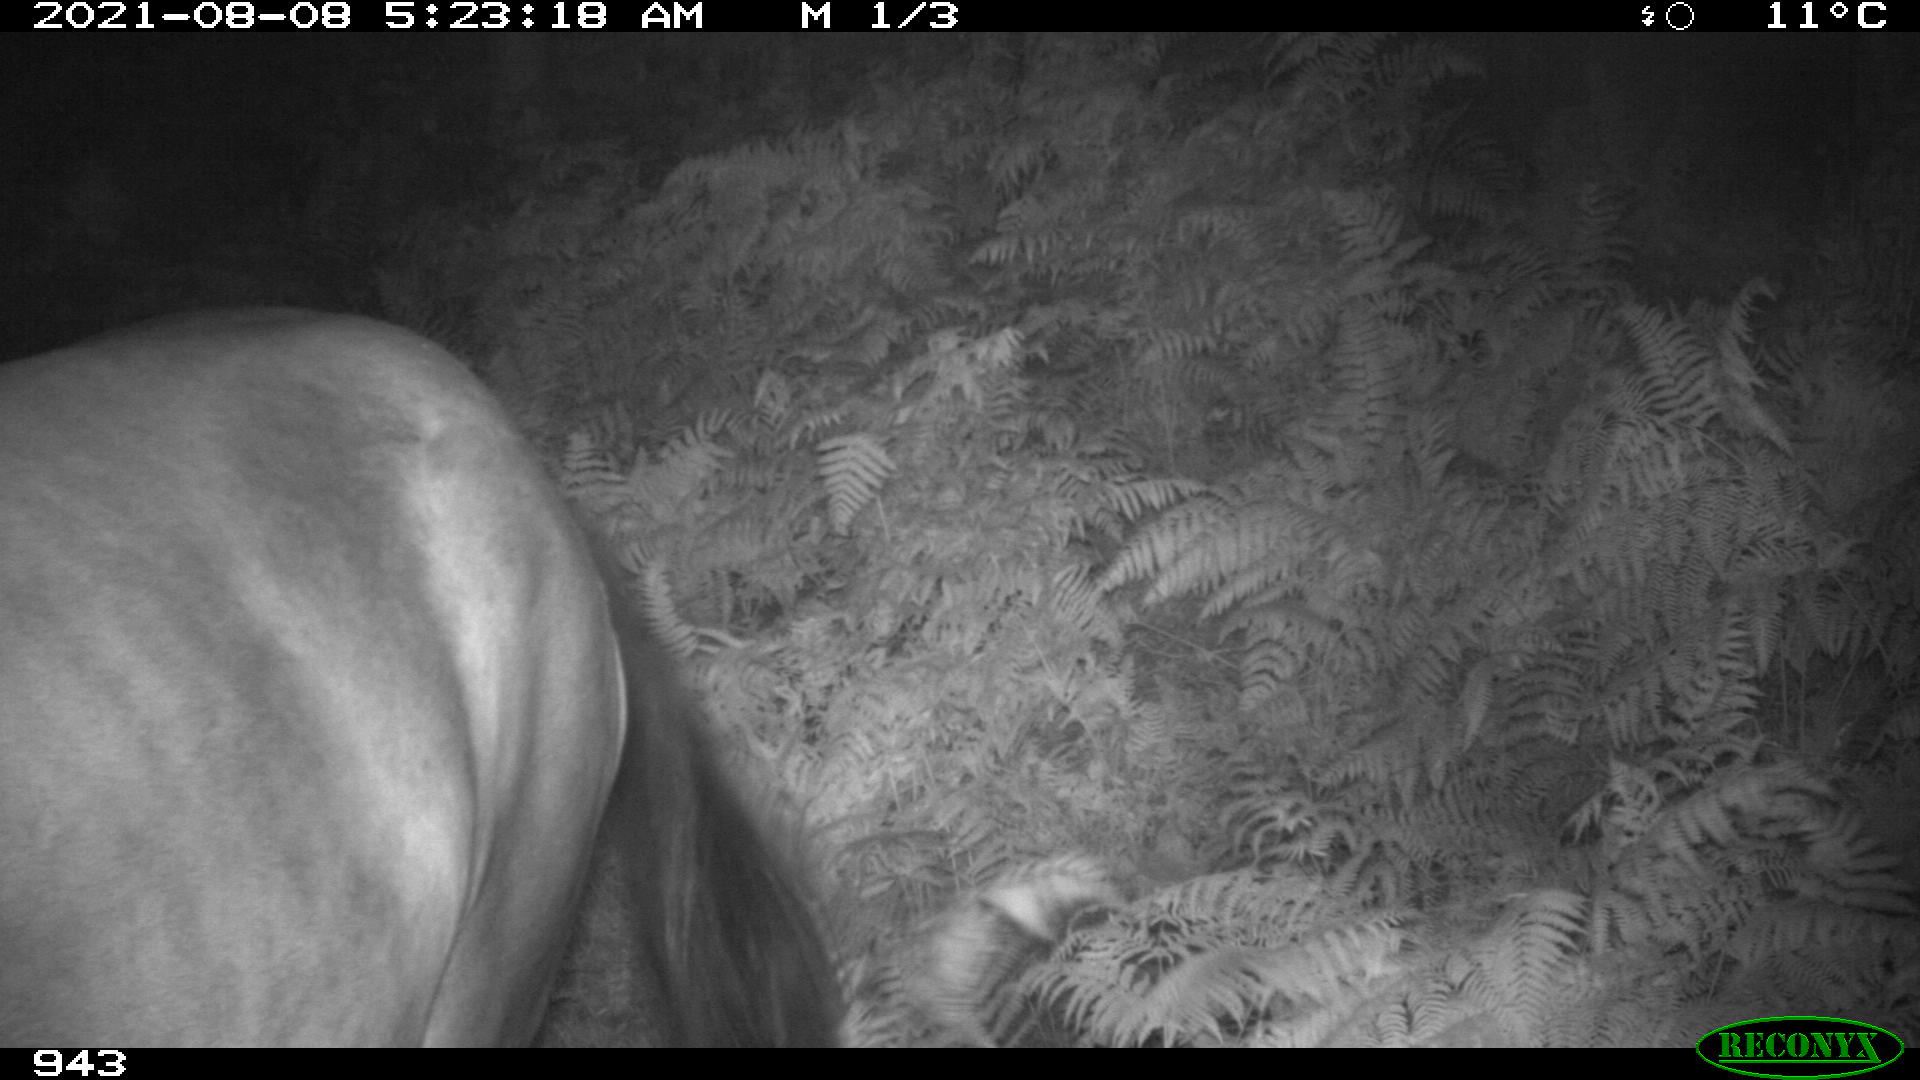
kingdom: Animalia
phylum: Chordata
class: Mammalia
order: Perissodactyla
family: Equidae
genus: Equus
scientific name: Equus caballus
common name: Horse
